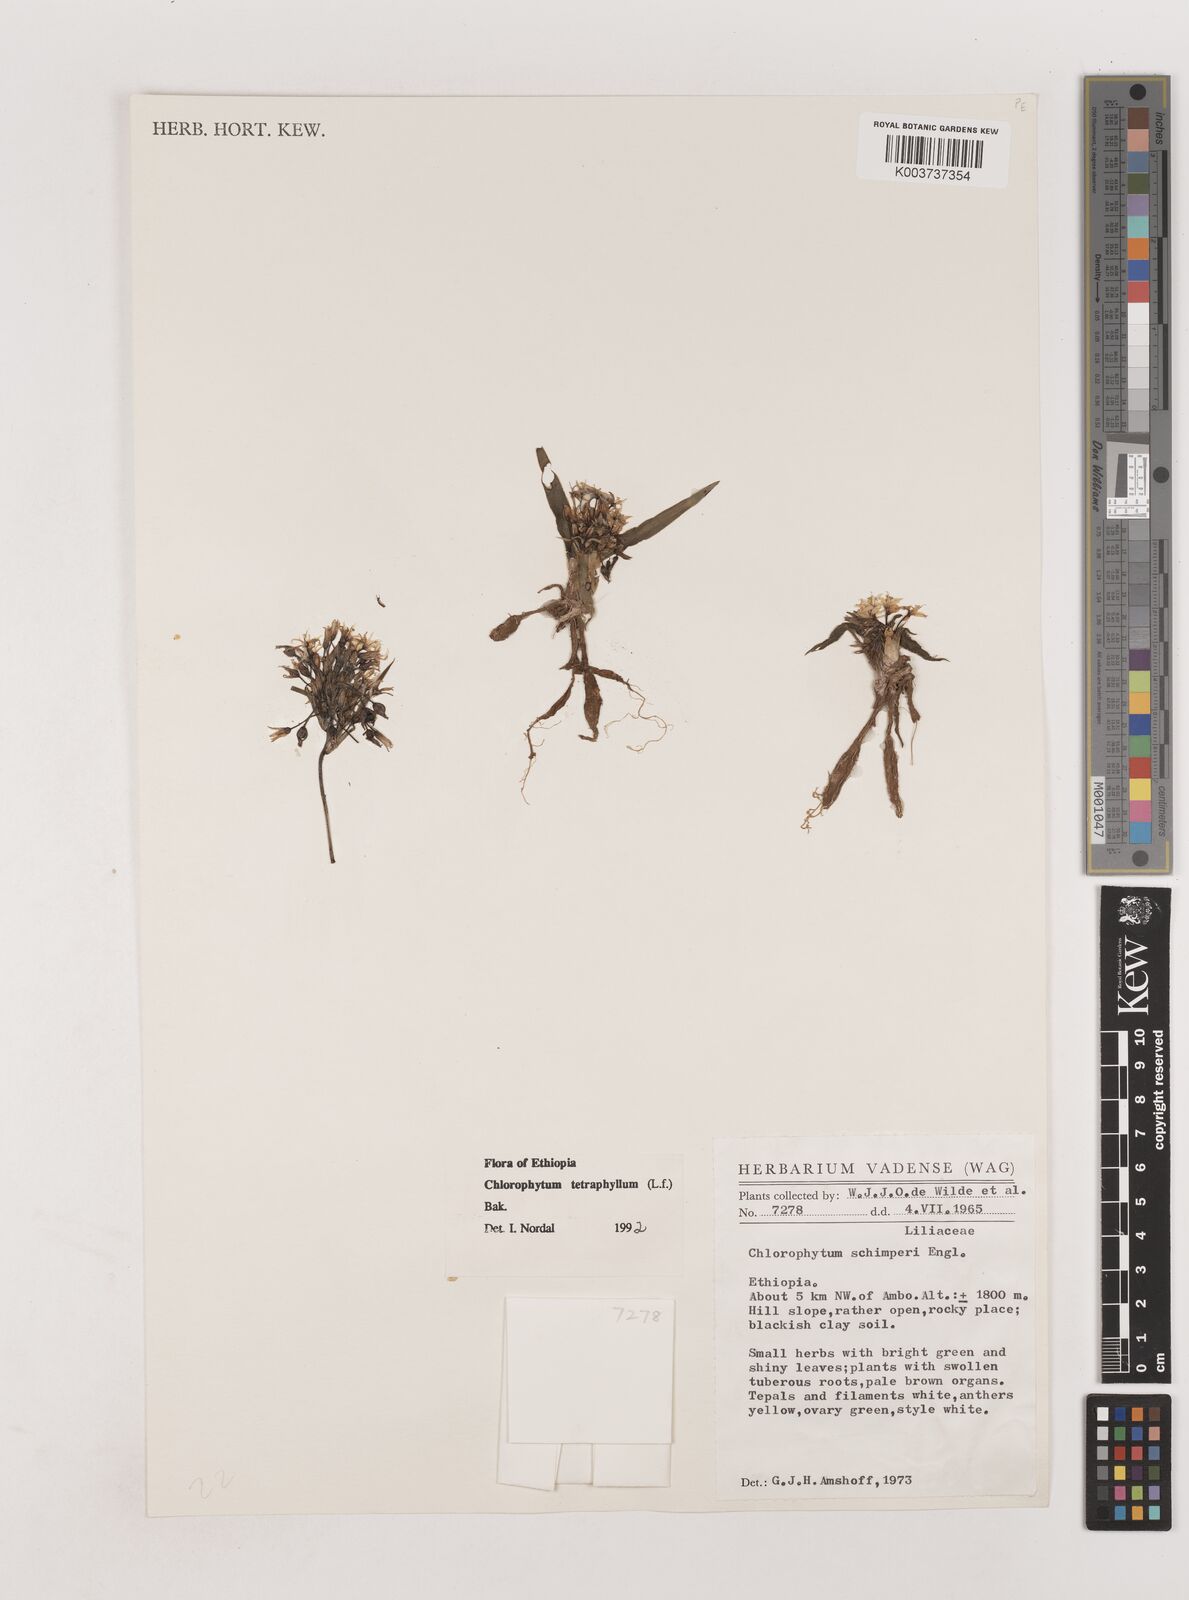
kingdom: Plantae
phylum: Tracheophyta
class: Liliopsida
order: Asparagales
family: Asparagaceae
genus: Chlorophytum
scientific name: Chlorophytum tetraphyllum
